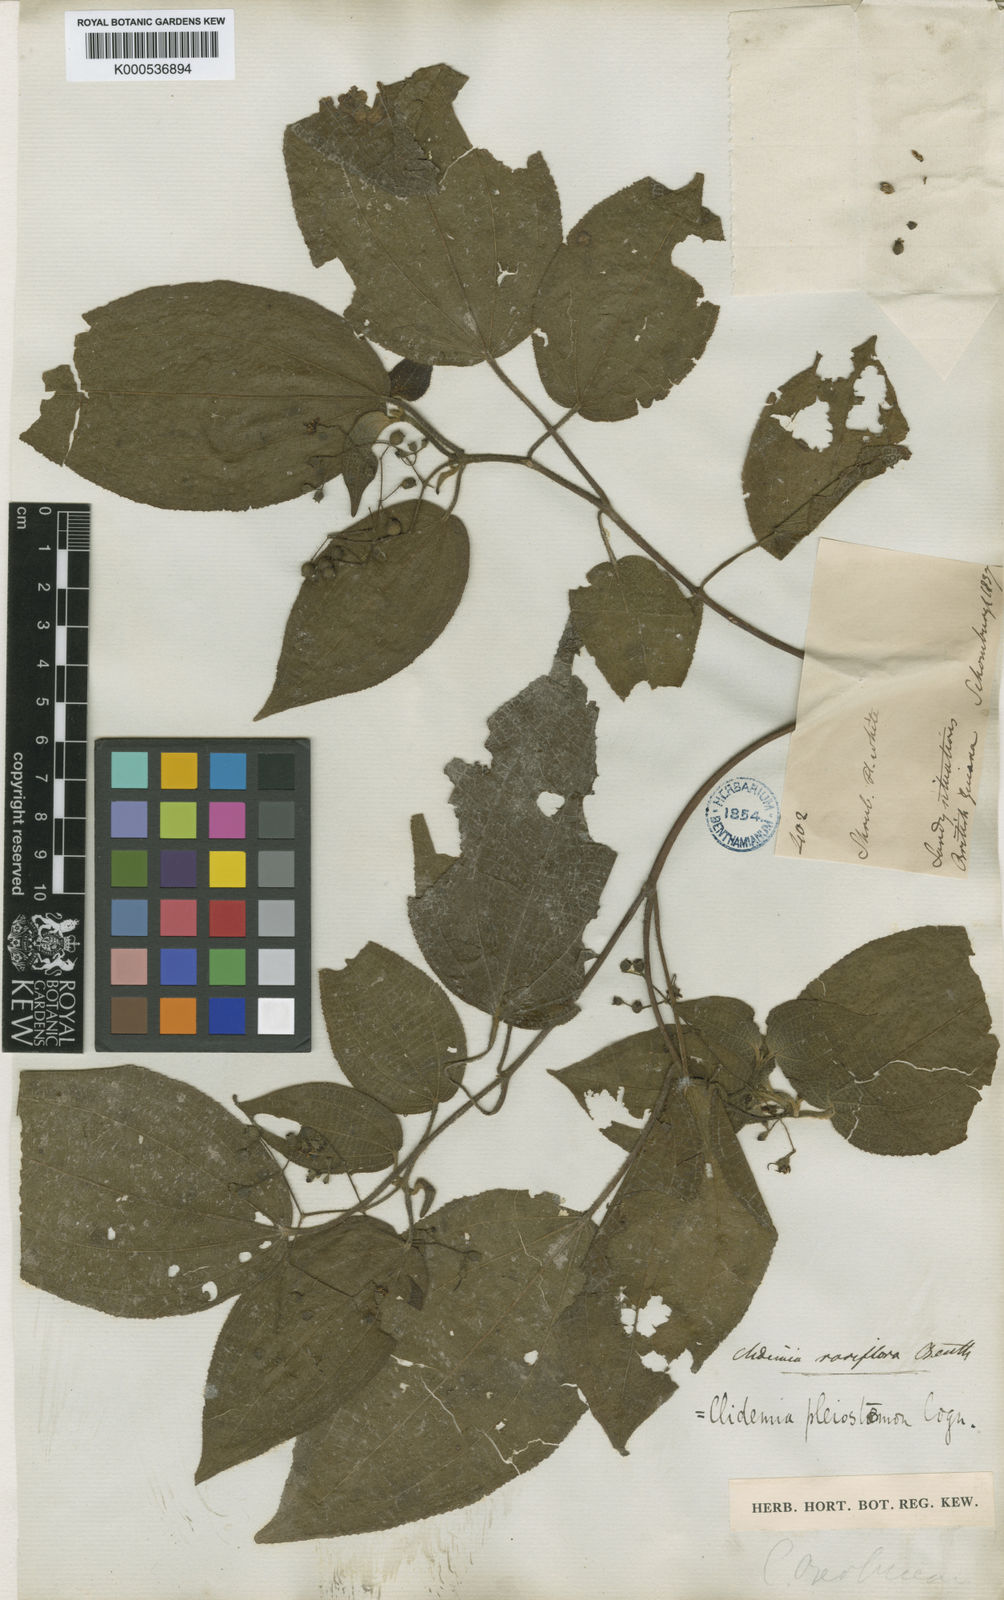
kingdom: Plantae
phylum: Tracheophyta
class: Magnoliopsida
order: Myrtales
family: Melastomataceae
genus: Miconia
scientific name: Miconia bullosa
